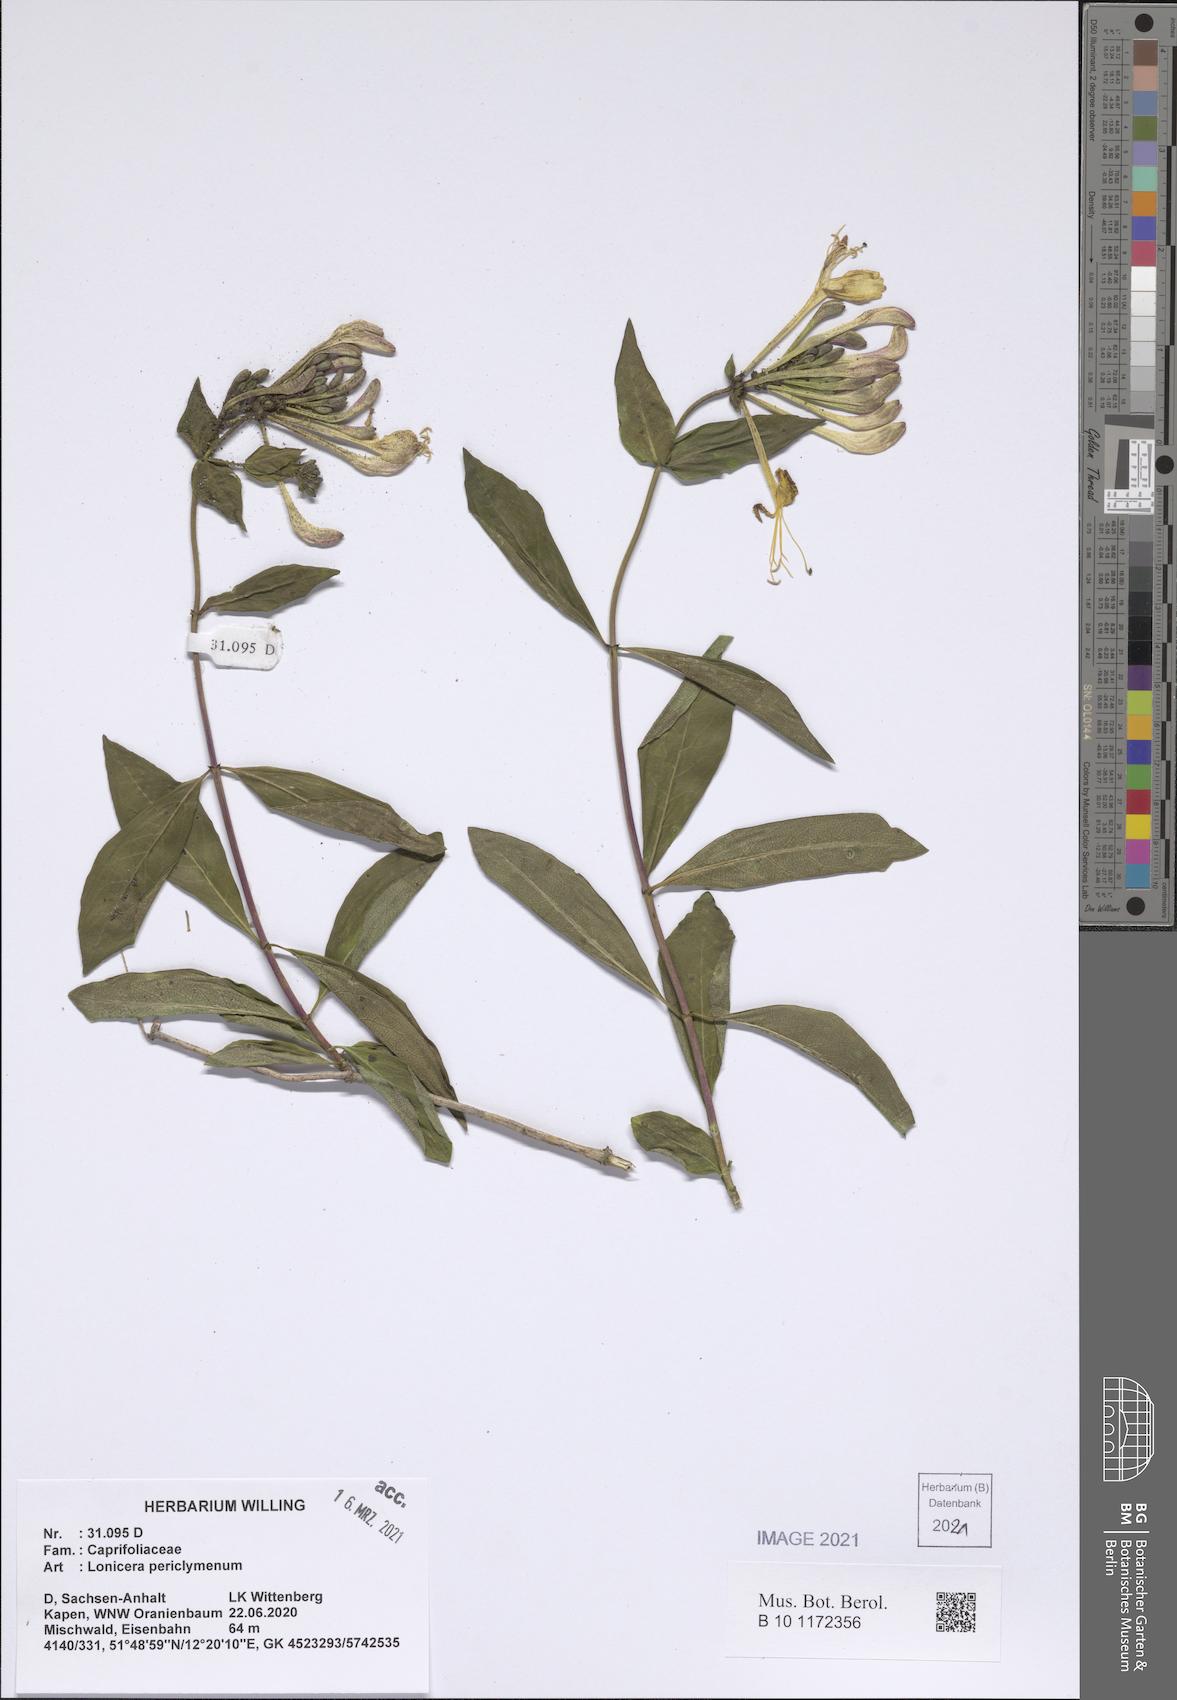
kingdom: Plantae
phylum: Tracheophyta
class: Magnoliopsida
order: Dipsacales
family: Caprifoliaceae
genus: Lonicera
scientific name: Lonicera periclymenum
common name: European honeysuckle
